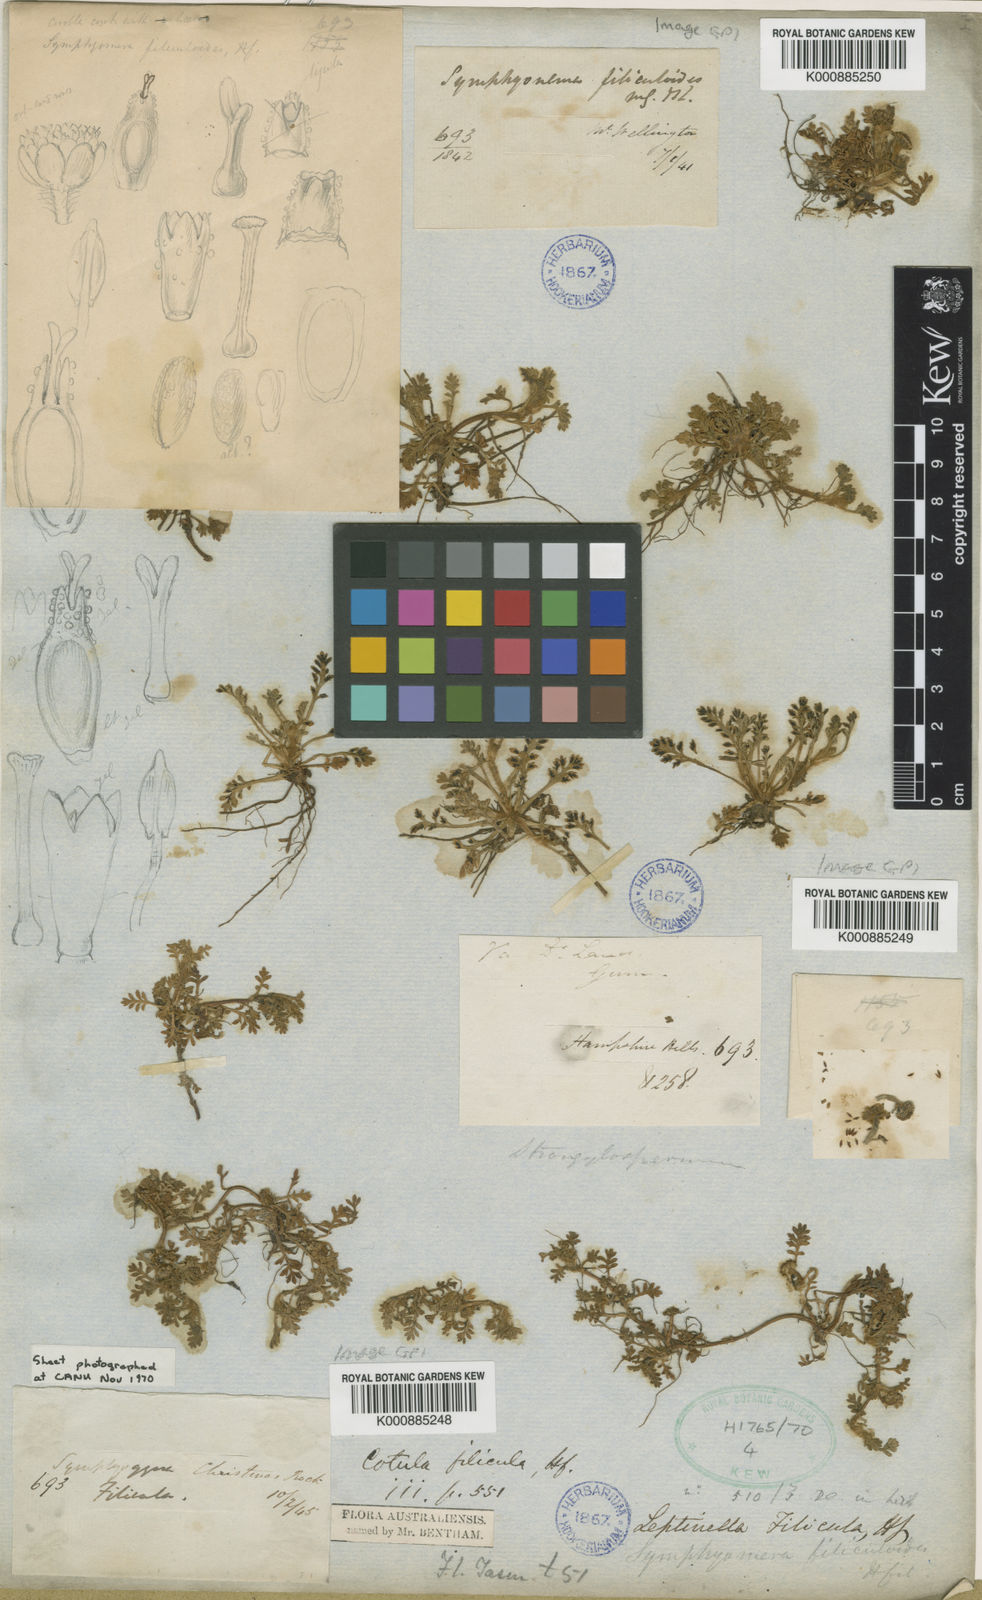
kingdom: Plantae
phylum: Tracheophyta
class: Magnoliopsida
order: Asterales
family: Asteraceae
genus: Leptinella
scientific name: Leptinella filicula
